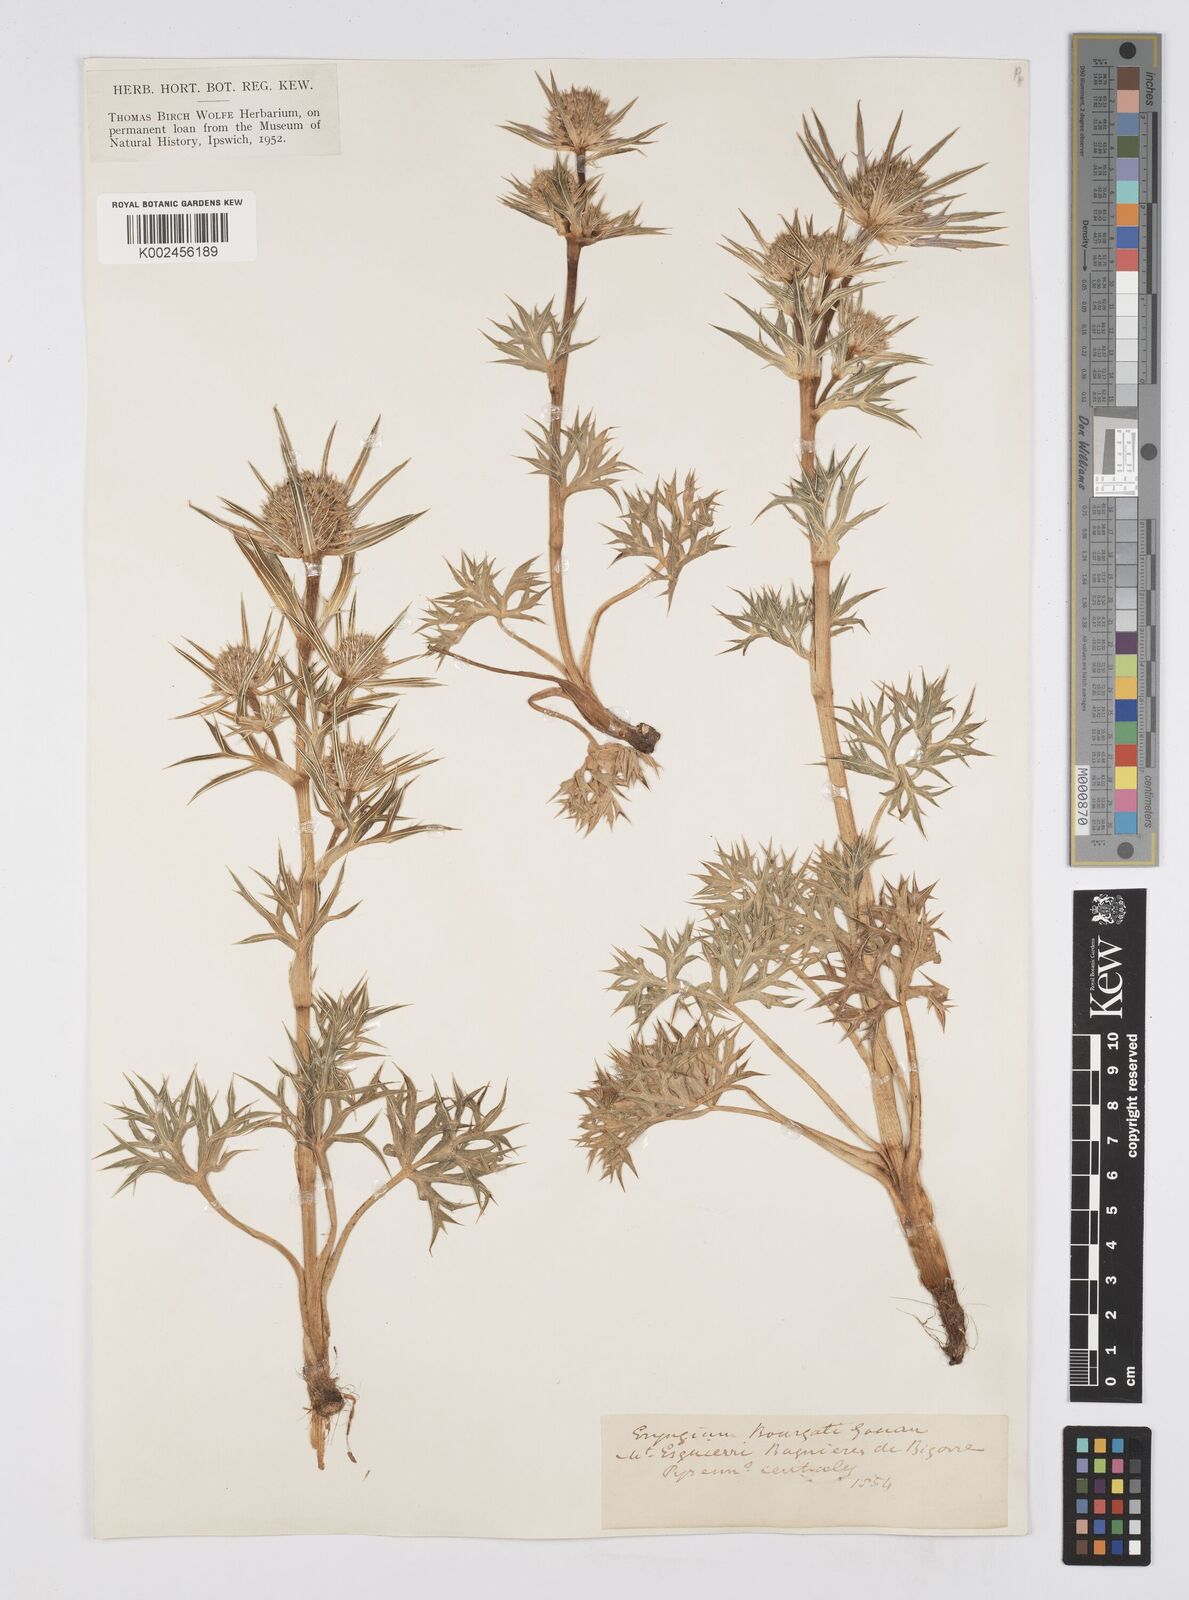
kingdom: Plantae
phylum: Tracheophyta
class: Magnoliopsida
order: Apiales
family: Apiaceae
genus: Eryngium
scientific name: Eryngium bourgatii
